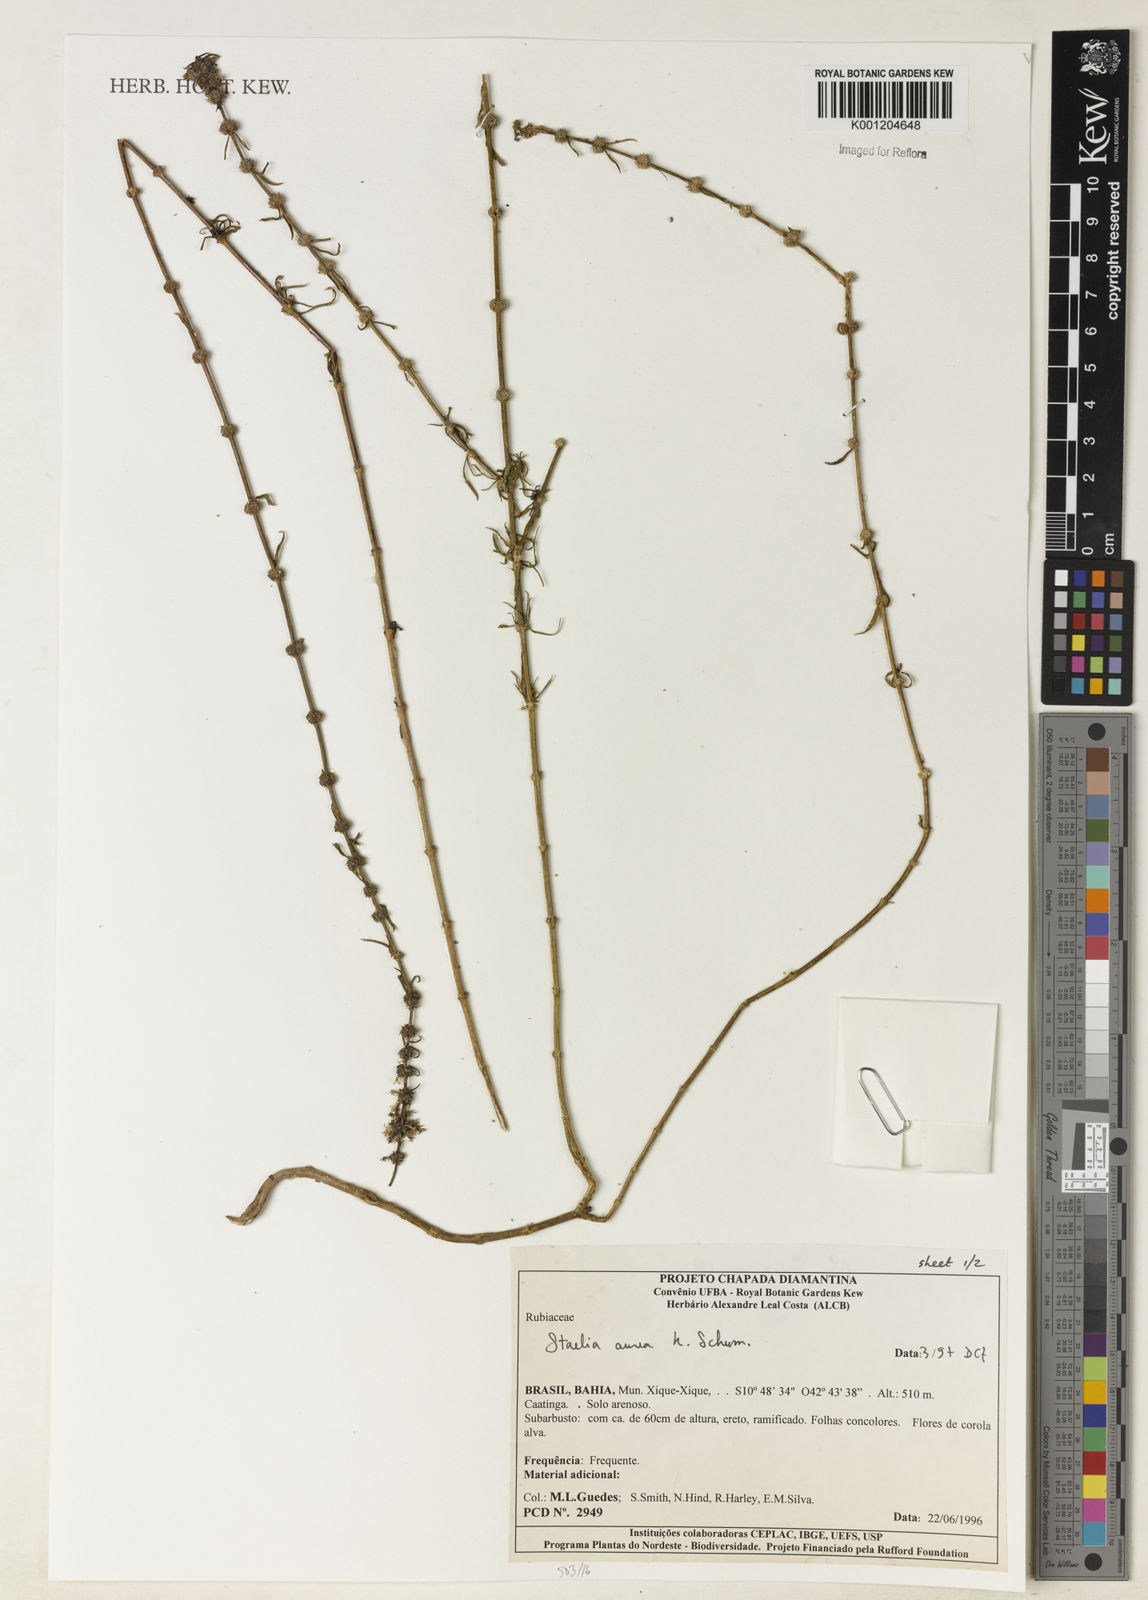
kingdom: Plantae
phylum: Tracheophyta
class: Magnoliopsida
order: Gentianales
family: Rubiaceae
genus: Staelia
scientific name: Staelia aurea
